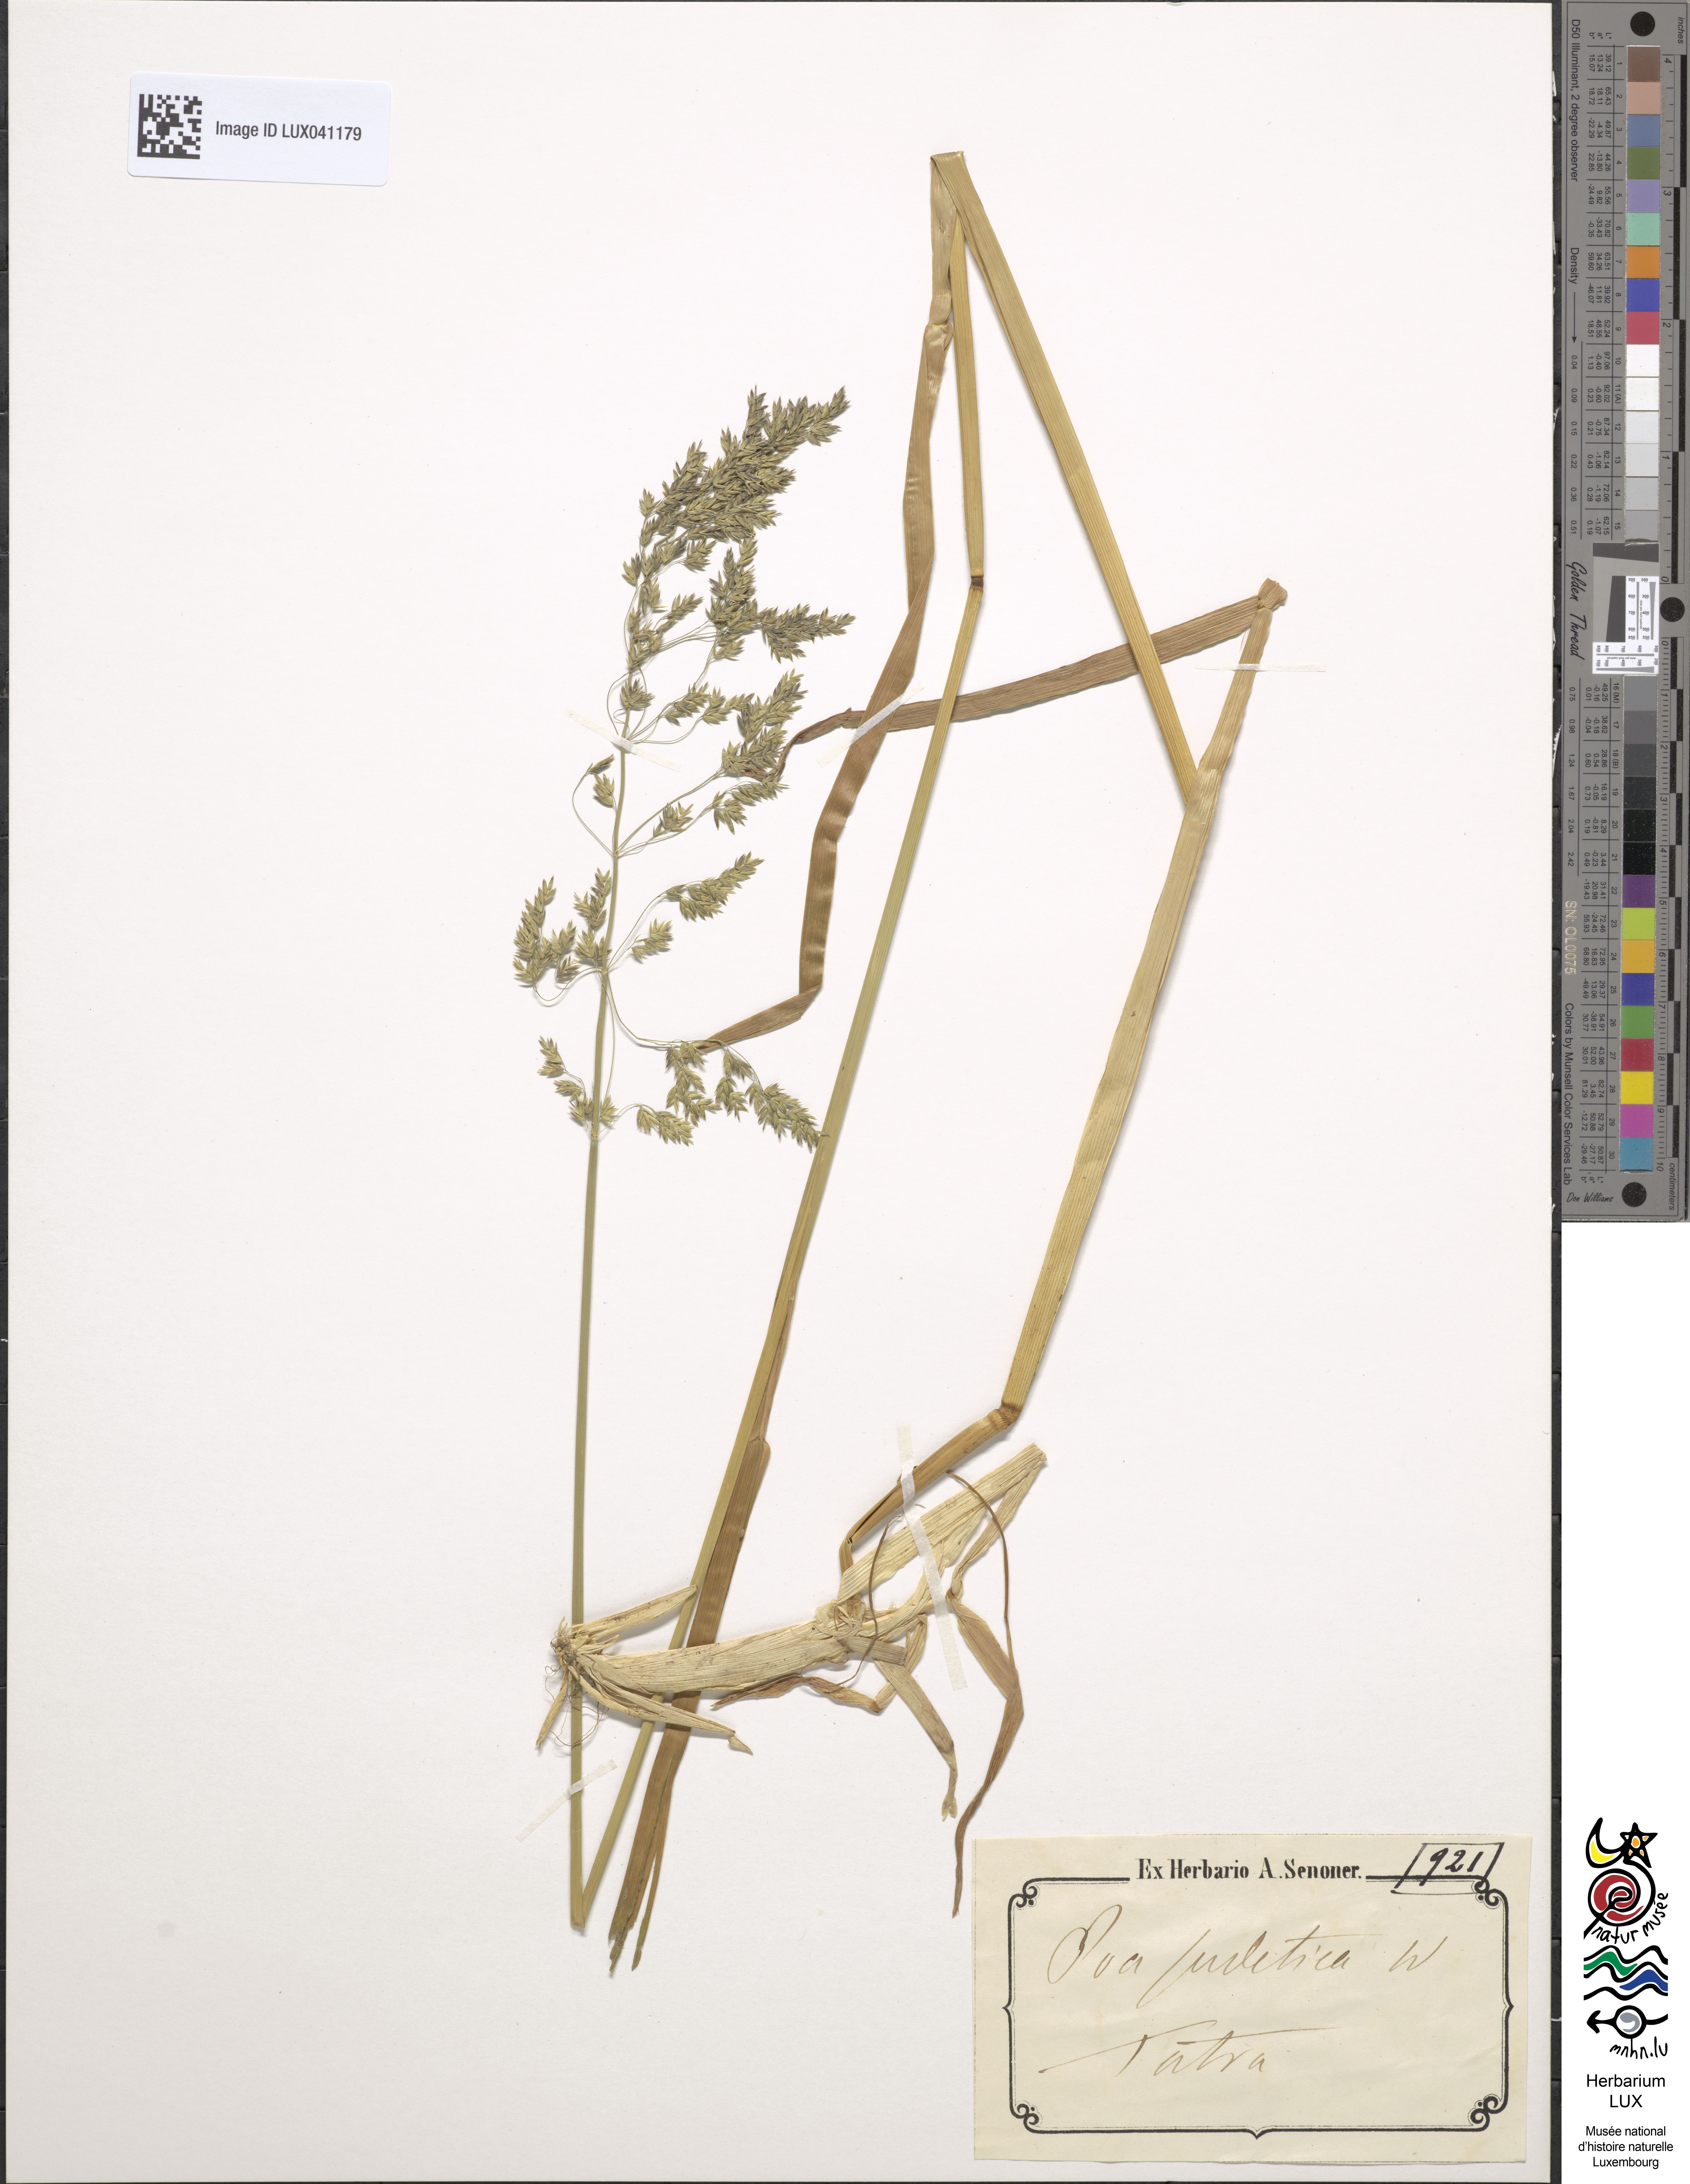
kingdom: Plantae
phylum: Tracheophyta
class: Liliopsida
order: Poales
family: Poaceae
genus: Poa
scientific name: Poa chaixii
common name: Broad-leaved meadow-grass
